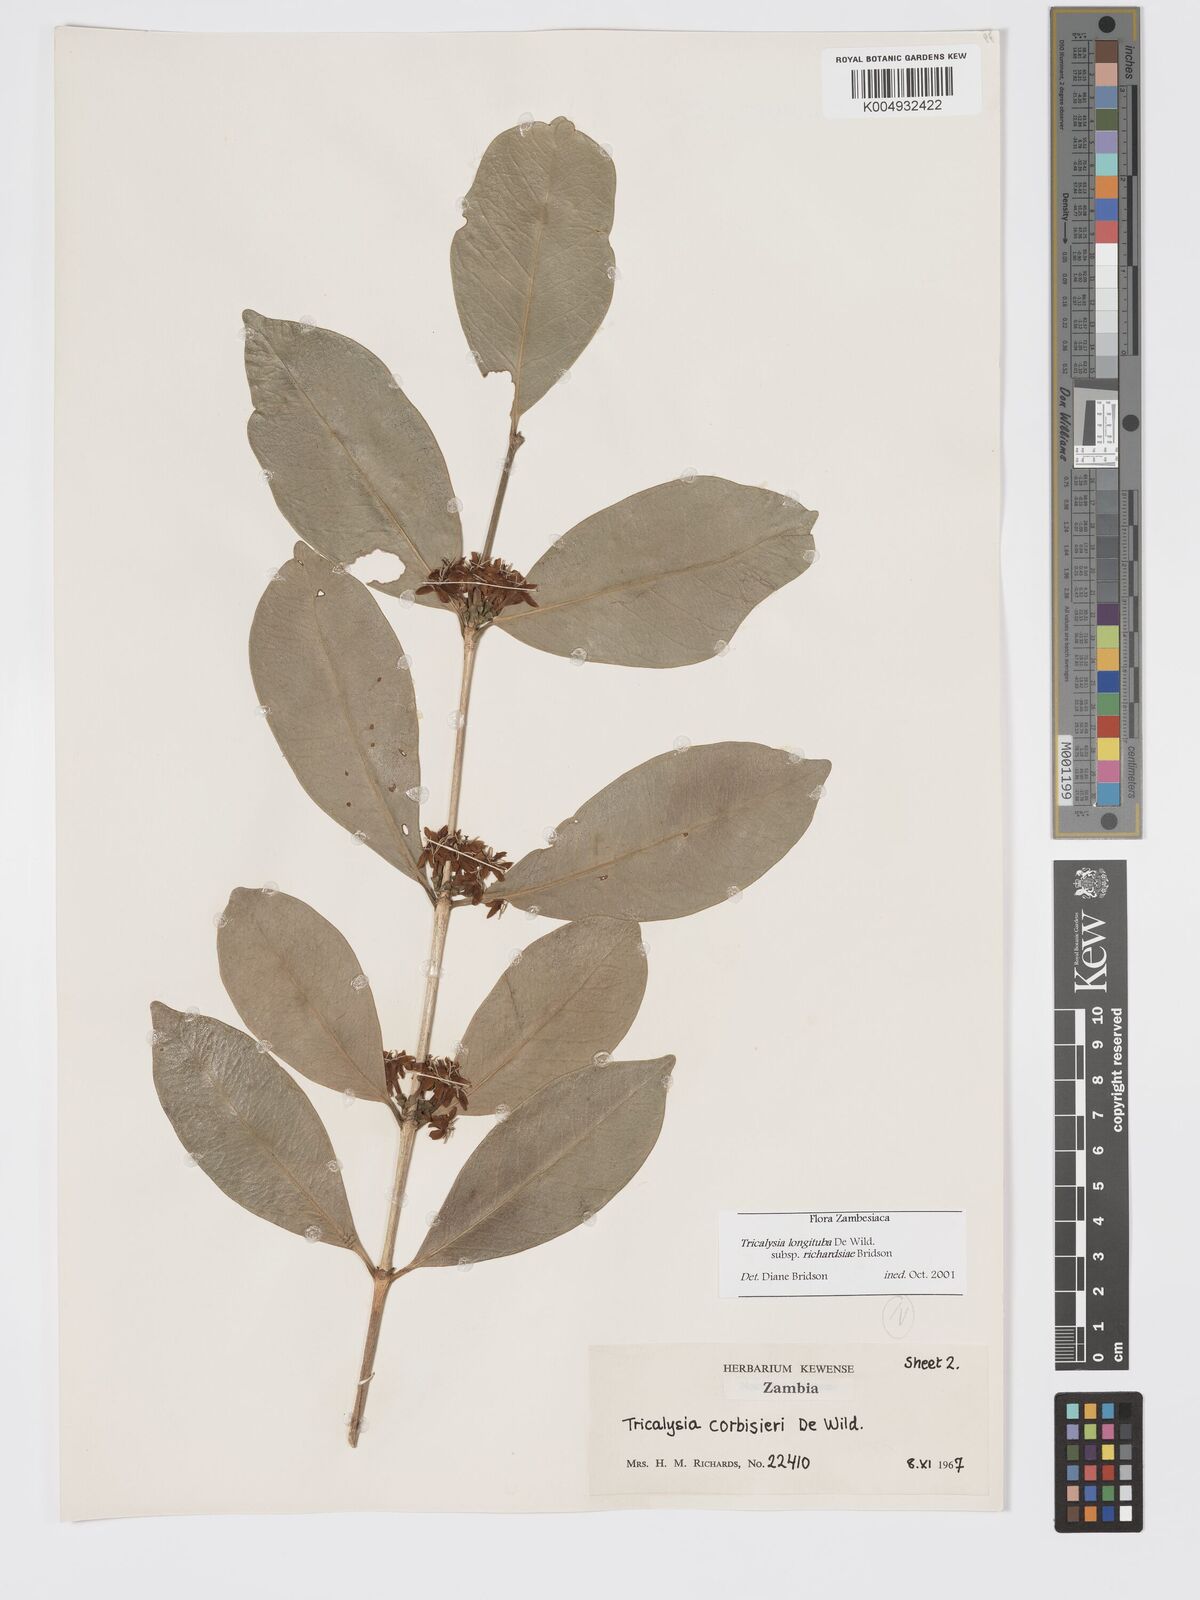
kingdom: Plantae
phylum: Tracheophyta
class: Magnoliopsida
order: Gentianales
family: Rubiaceae
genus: Tricalysia
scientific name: Tricalysia longituba
